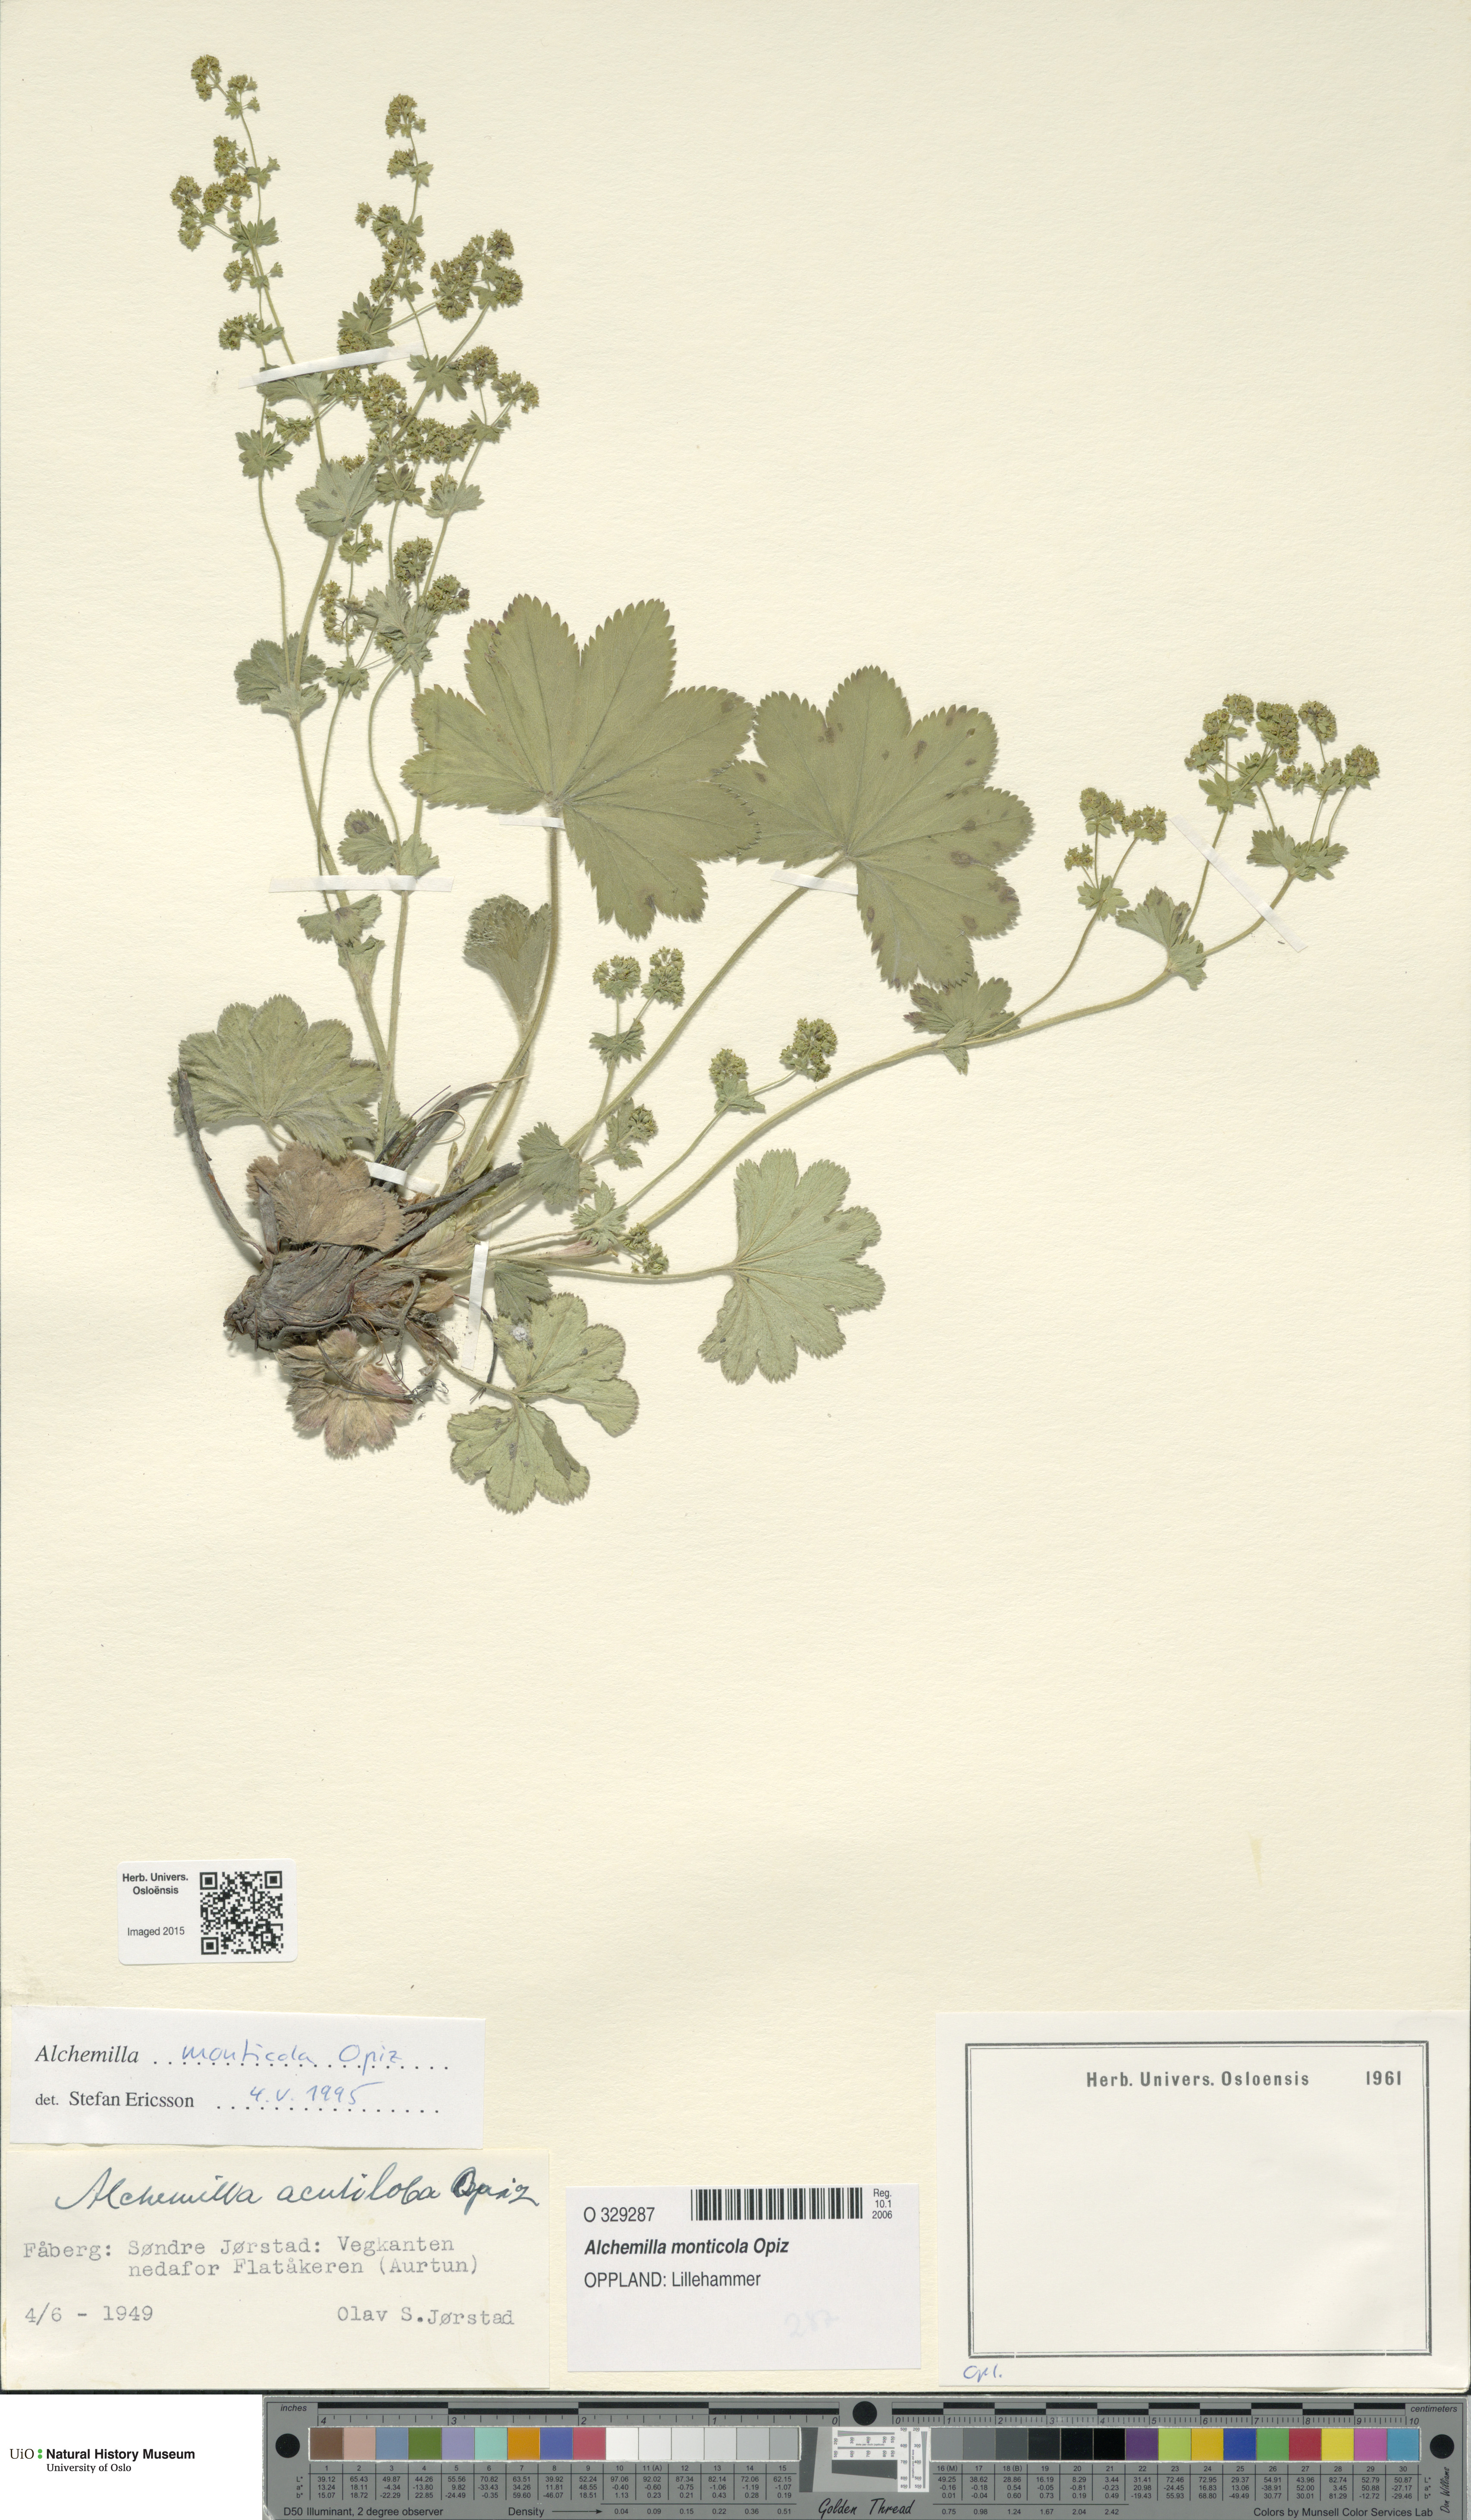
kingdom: Plantae
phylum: Tracheophyta
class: Magnoliopsida
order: Rosales
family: Rosaceae
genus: Alchemilla
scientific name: Alchemilla monticola
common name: Hairy lady's mantle
